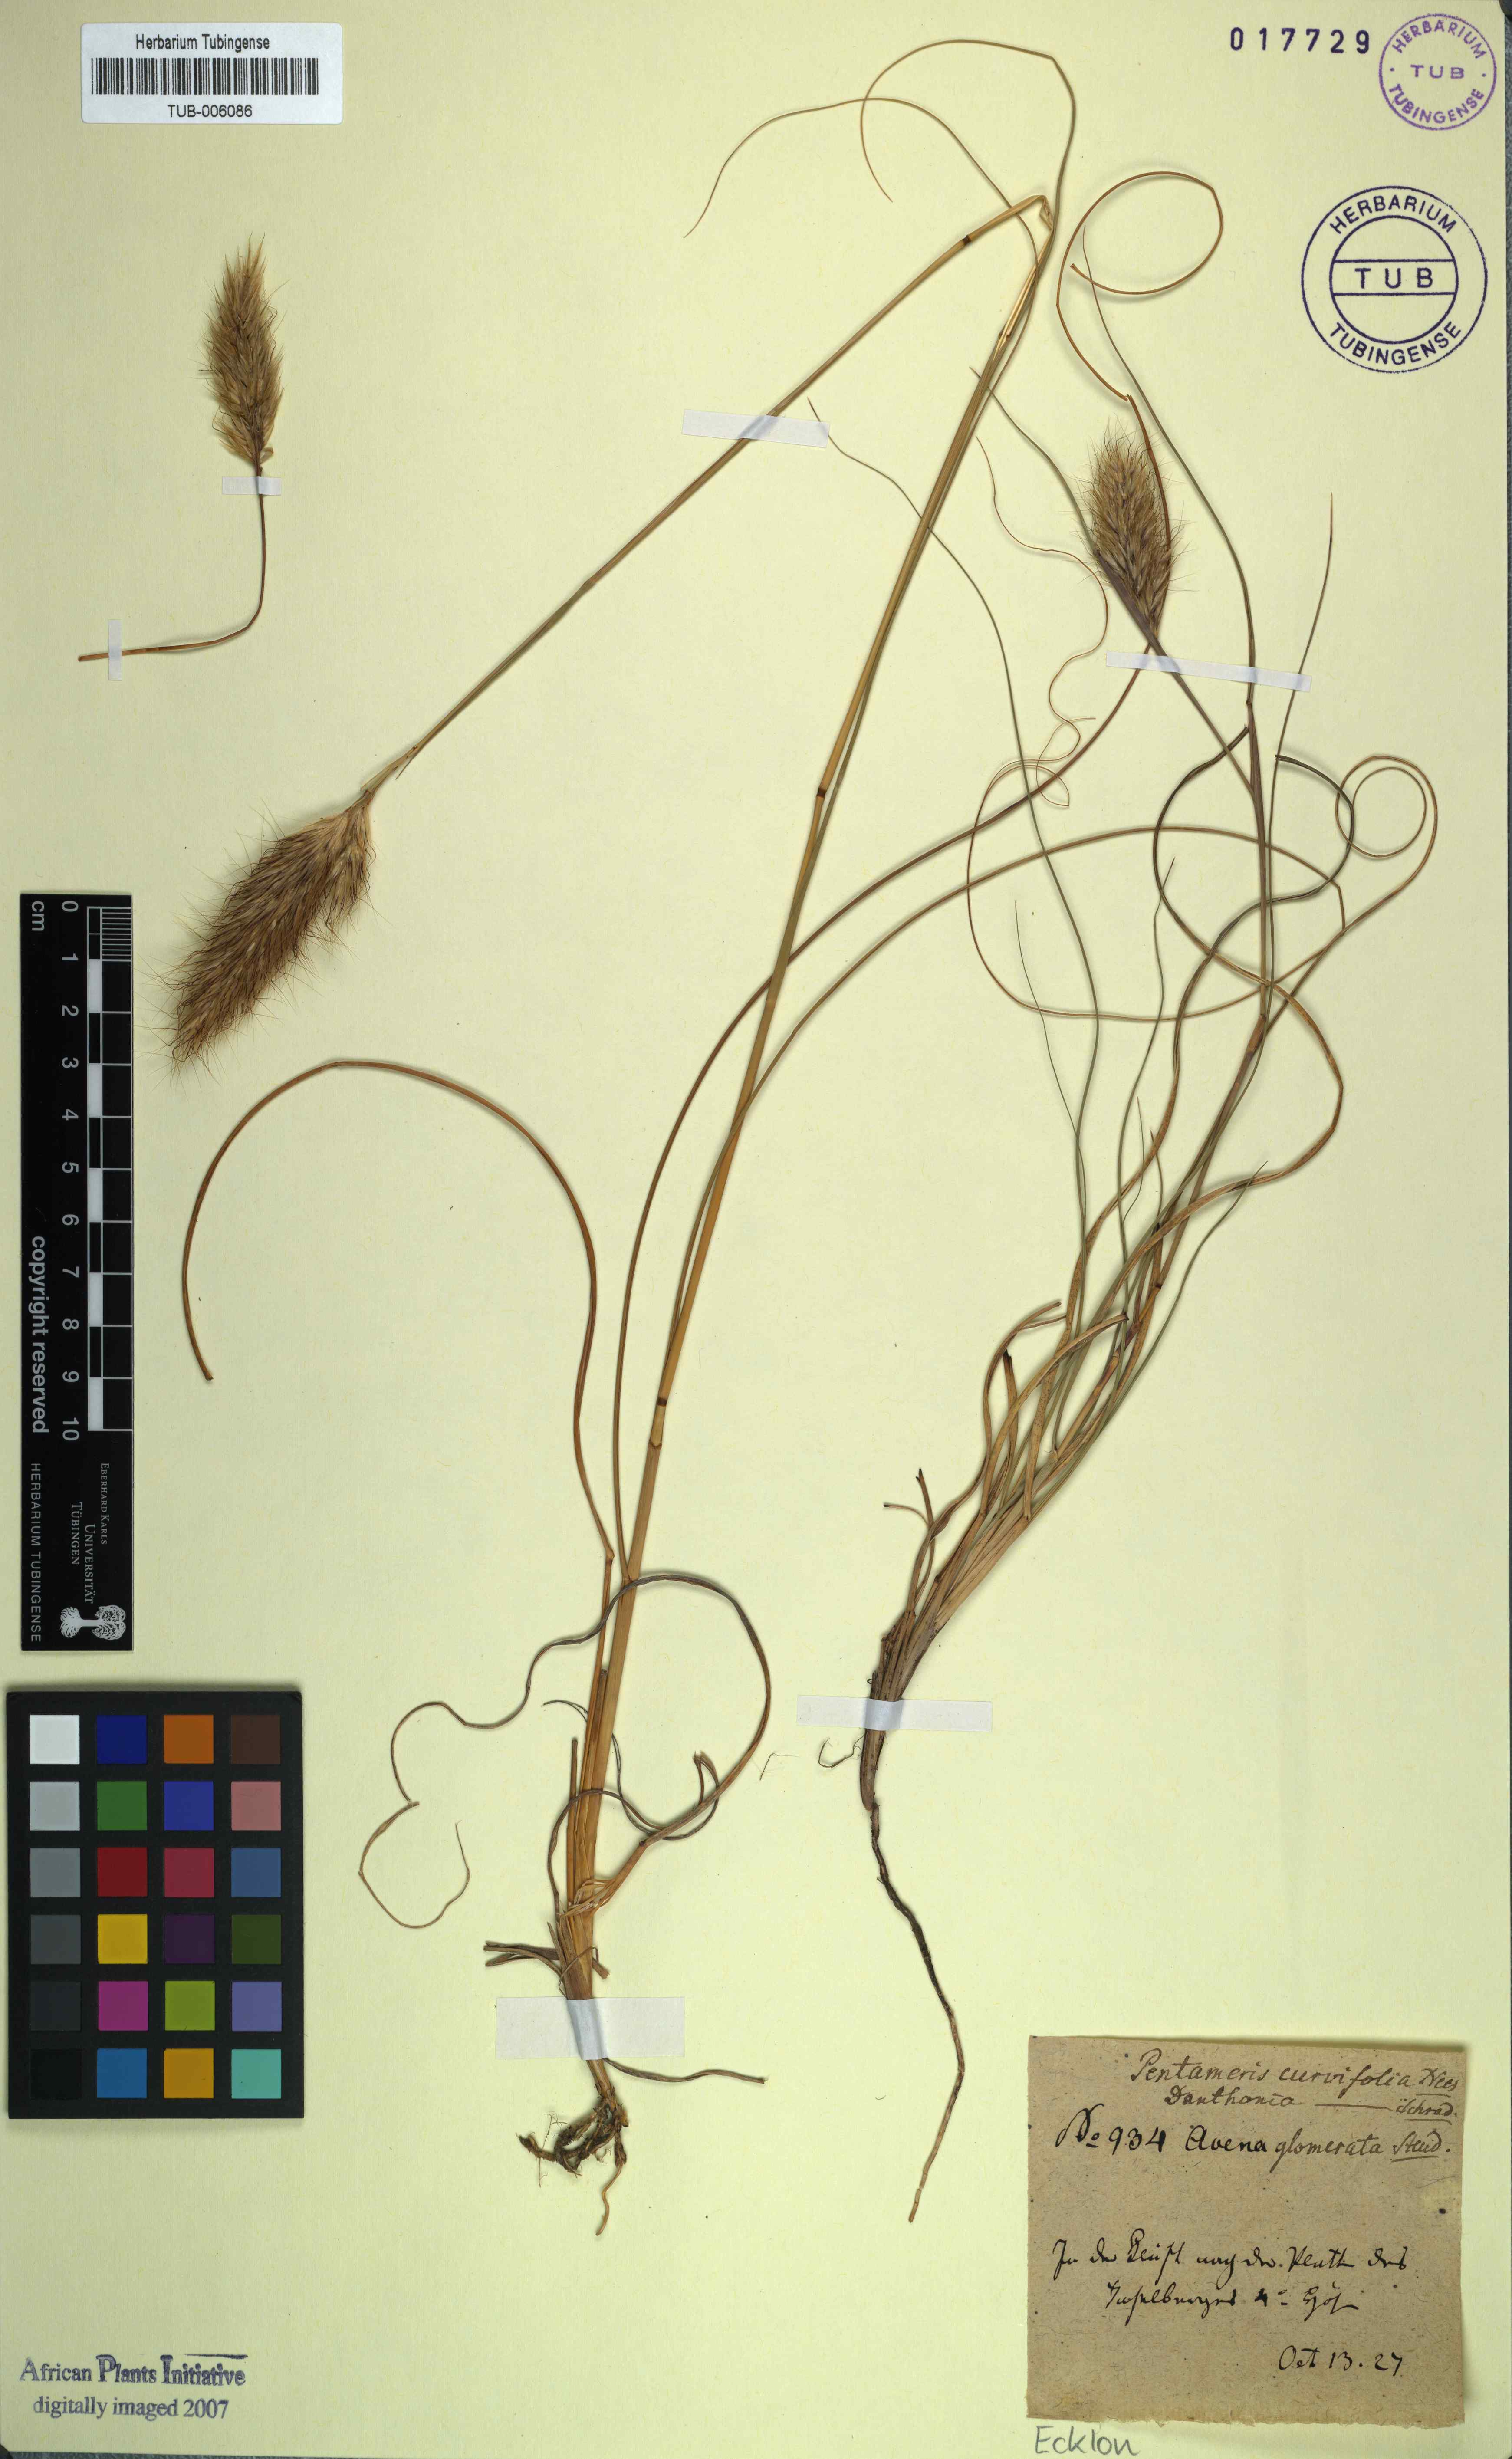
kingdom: Plantae
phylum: Tracheophyta
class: Liliopsida
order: Poales
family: Poaceae
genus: Pentameris
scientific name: Pentameris curvifolia
